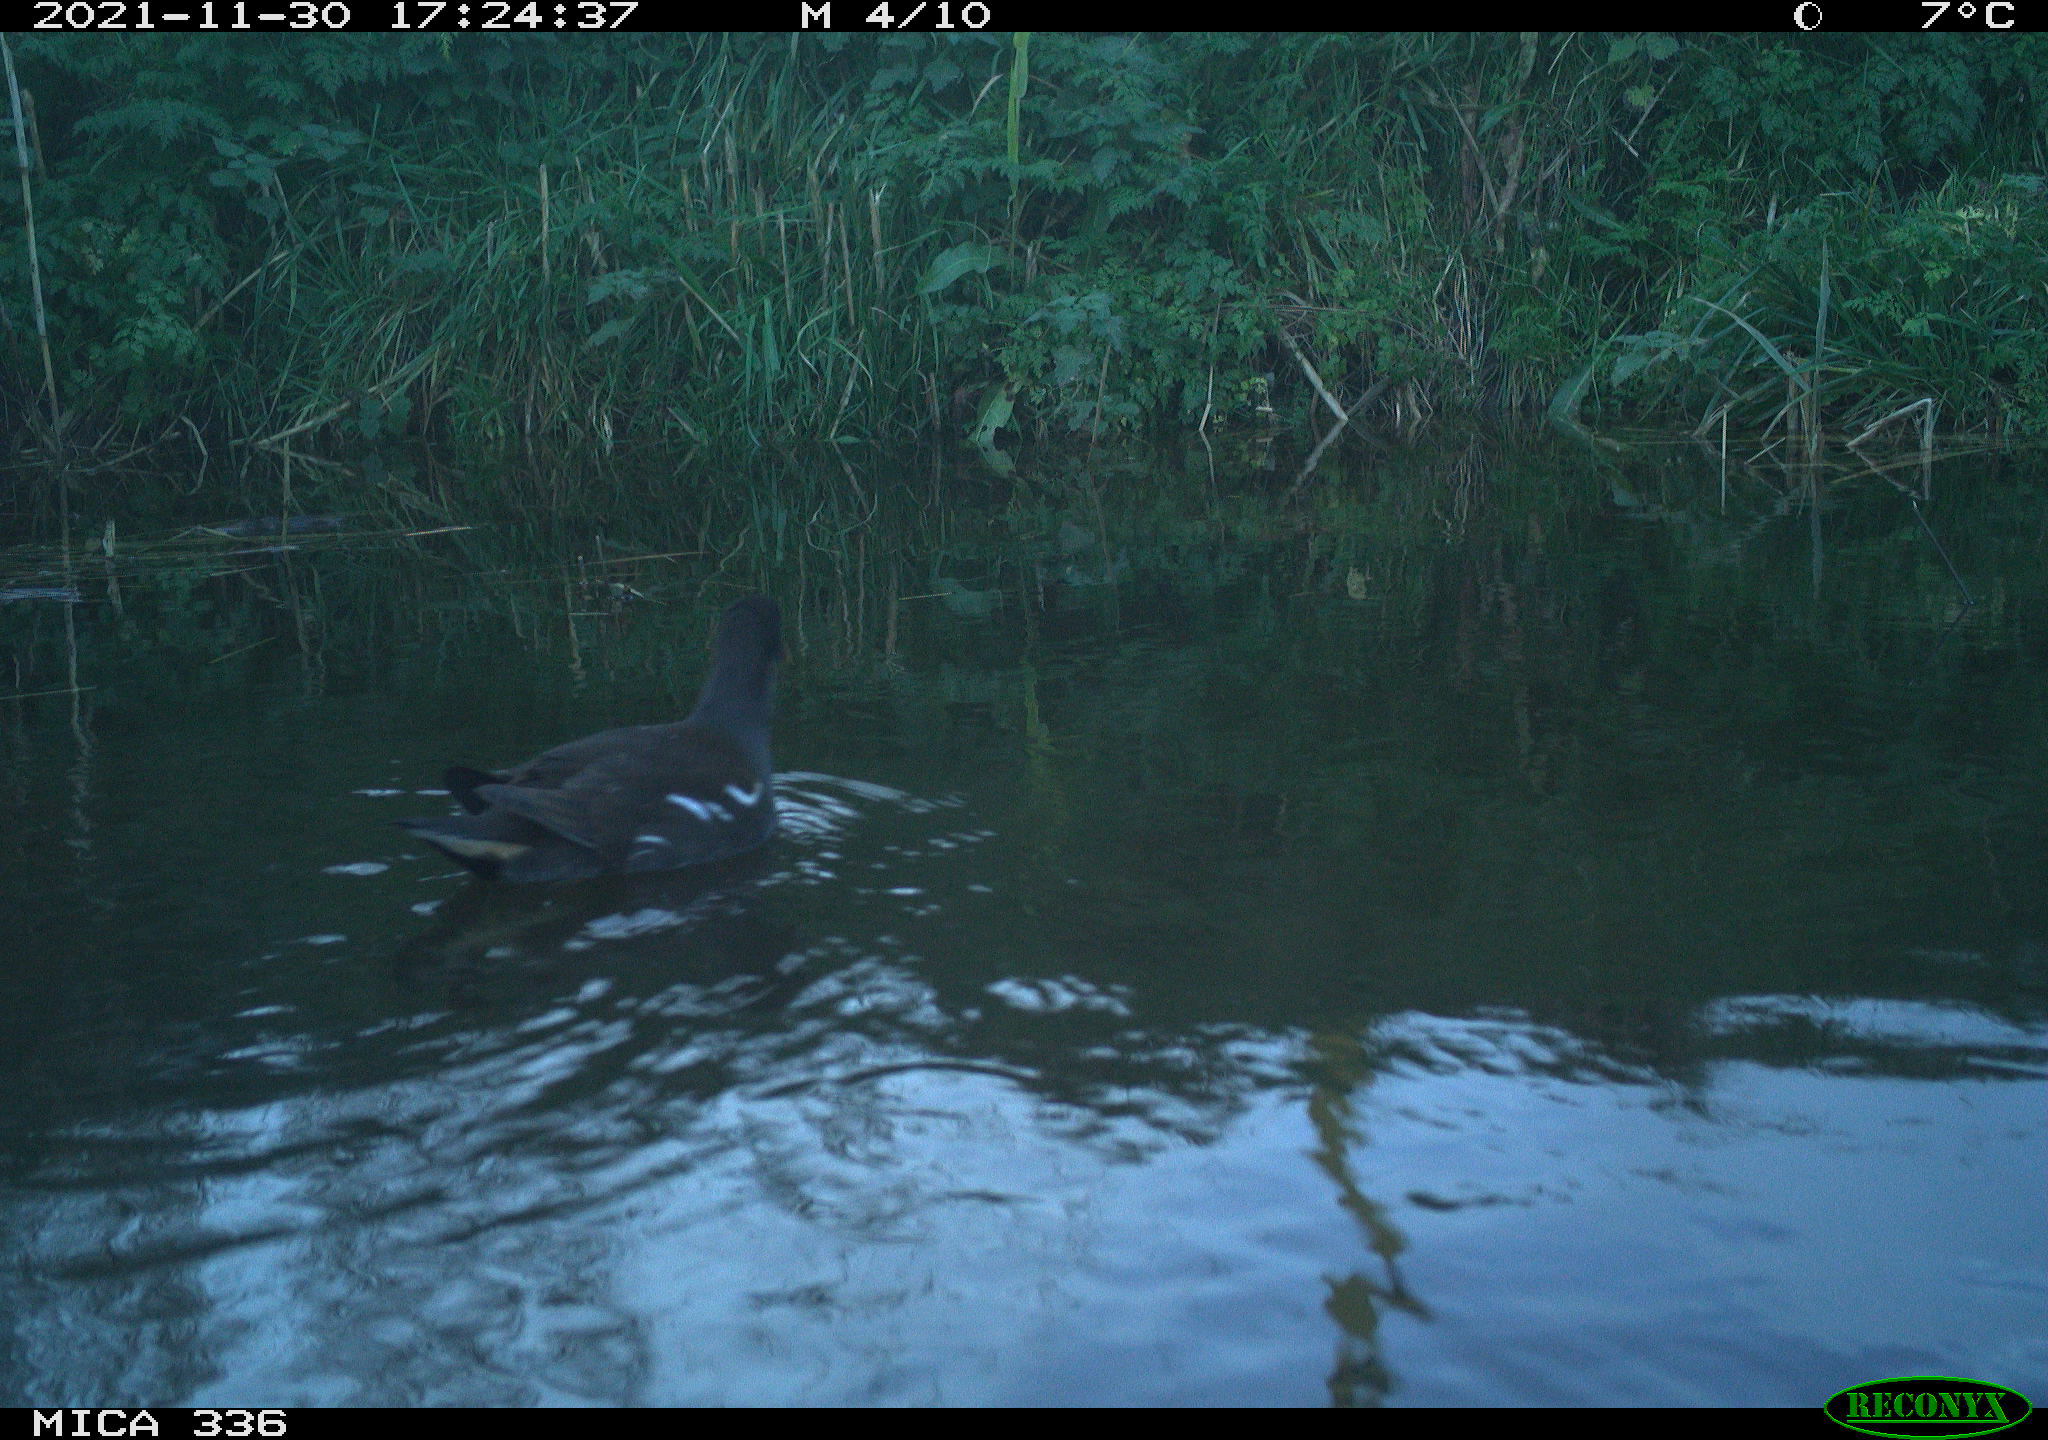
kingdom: Animalia
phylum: Chordata
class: Aves
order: Gruiformes
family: Rallidae
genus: Gallinula
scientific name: Gallinula chloropus
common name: Common moorhen
